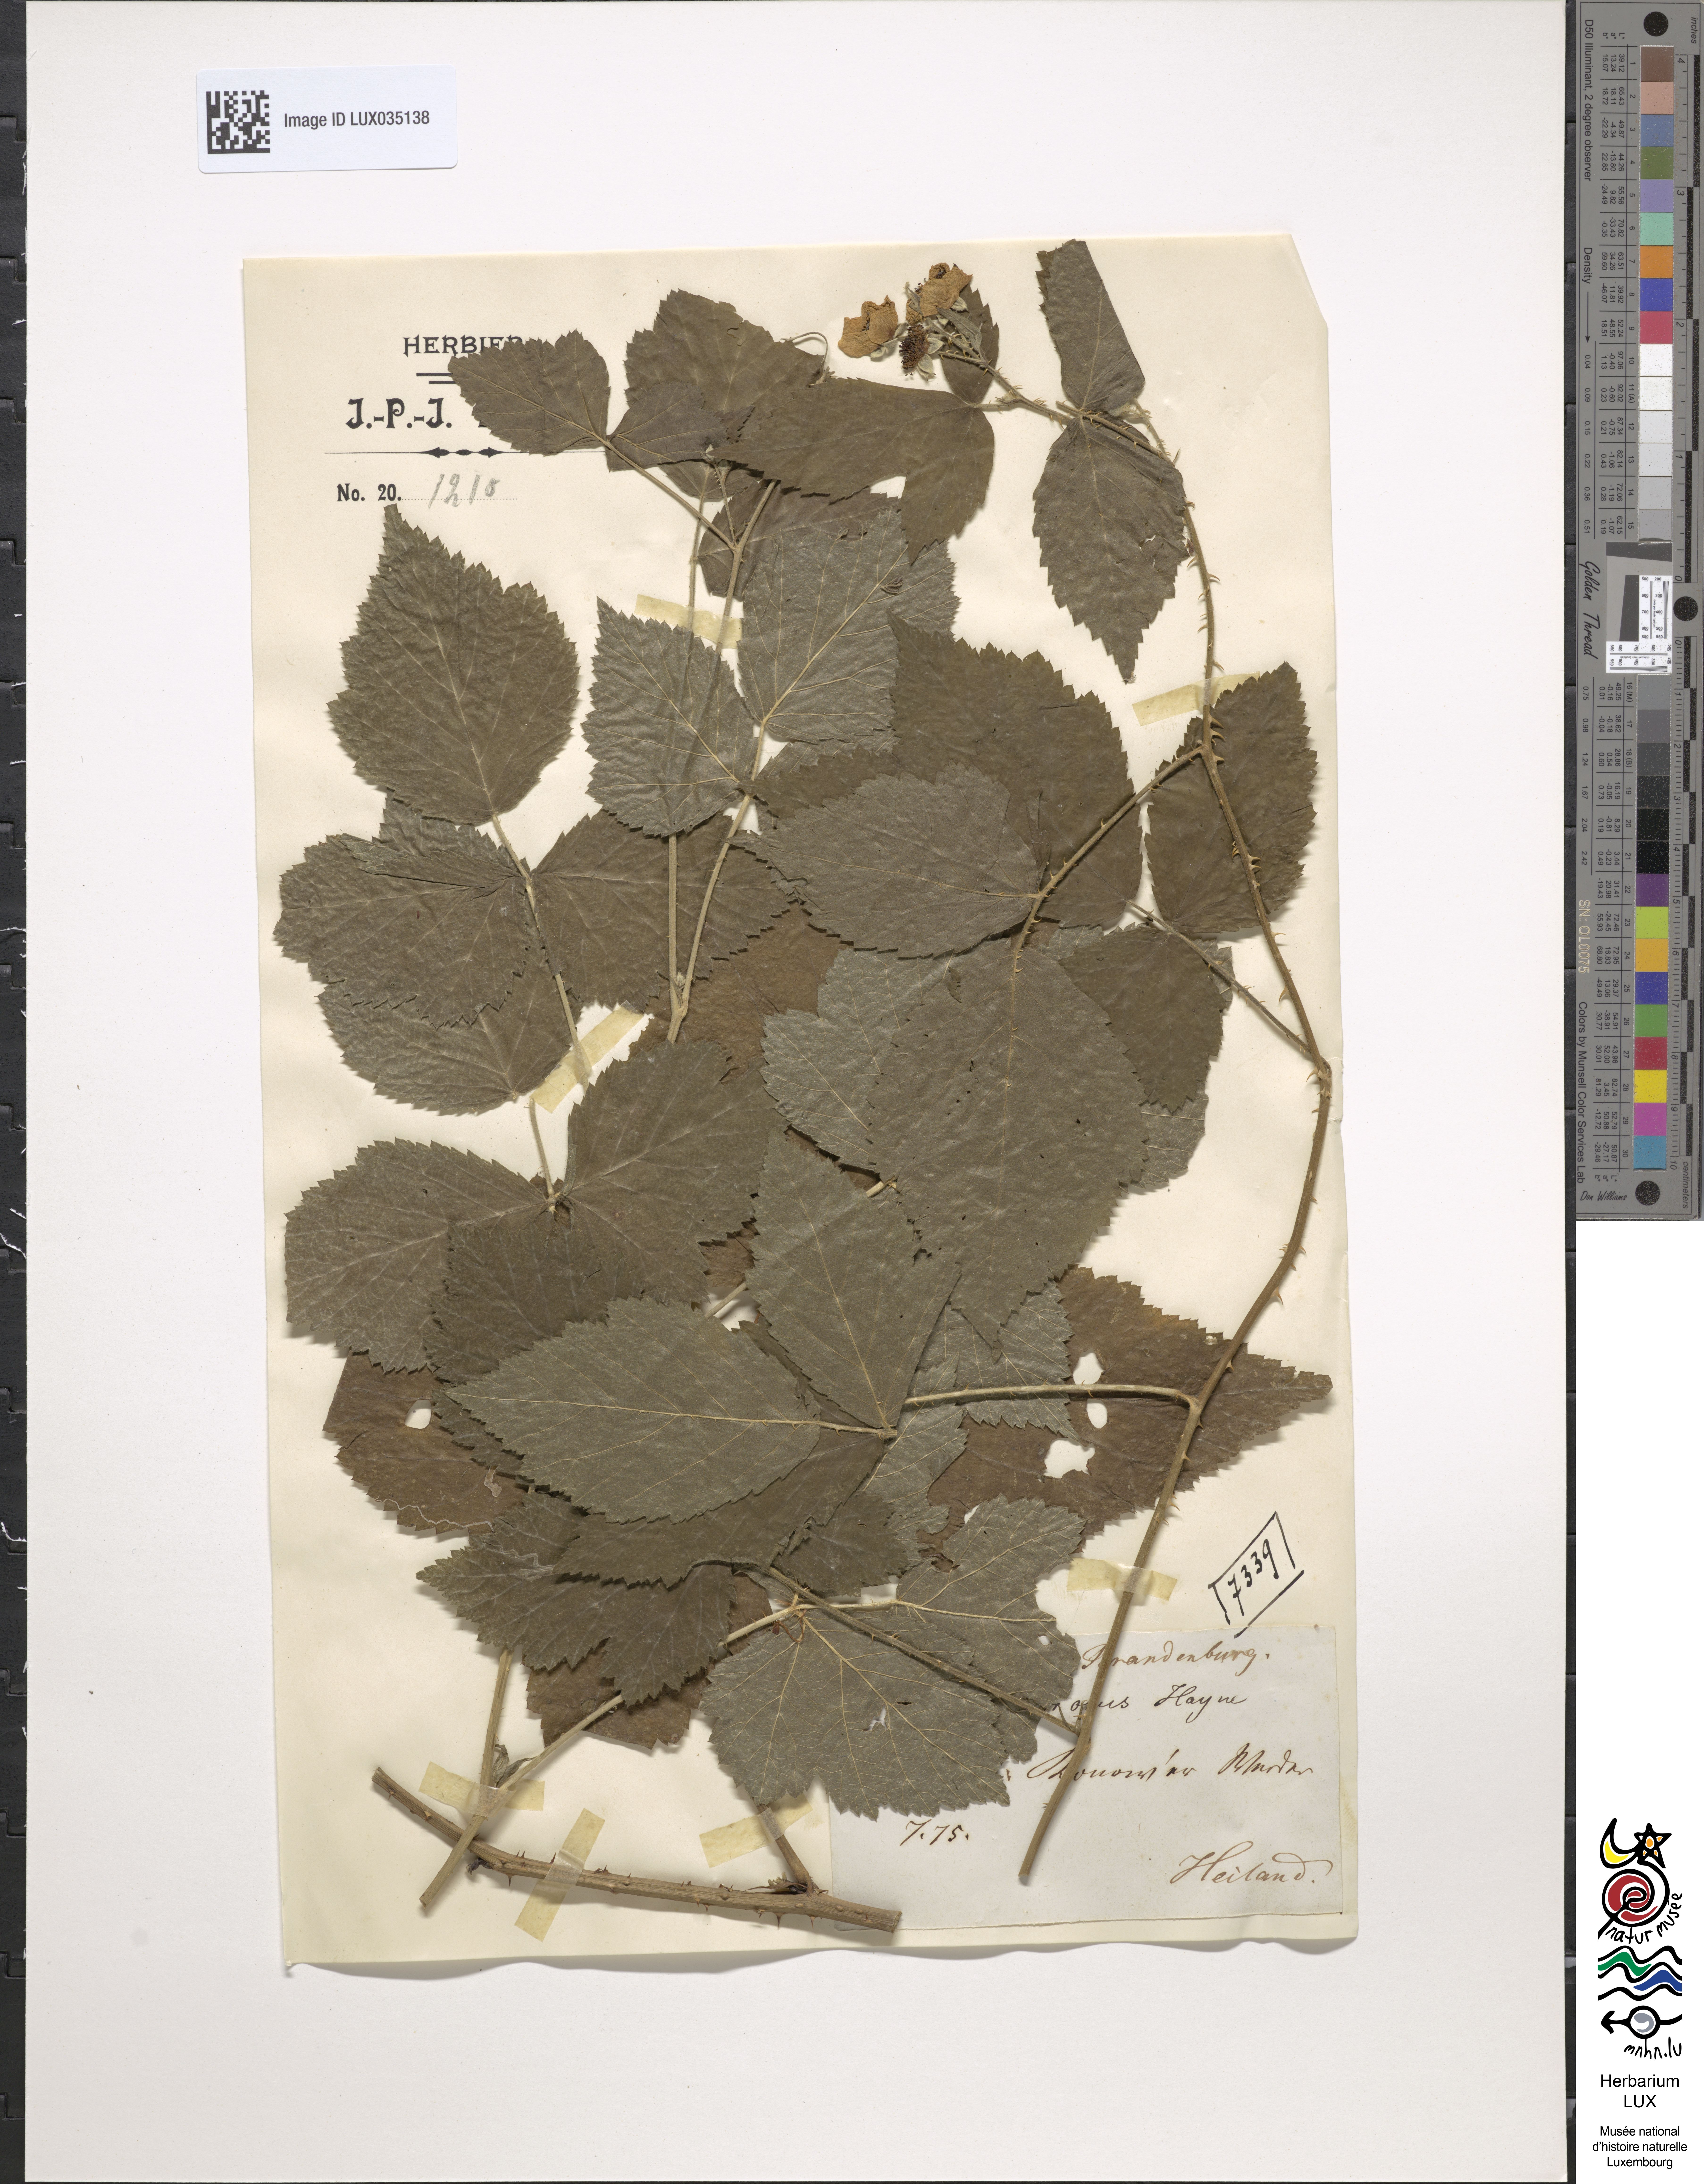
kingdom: Plantae
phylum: Tracheophyta
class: Magnoliopsida
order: Rosales
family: Rosaceae
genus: Rubus
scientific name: Rubus nemorosus
